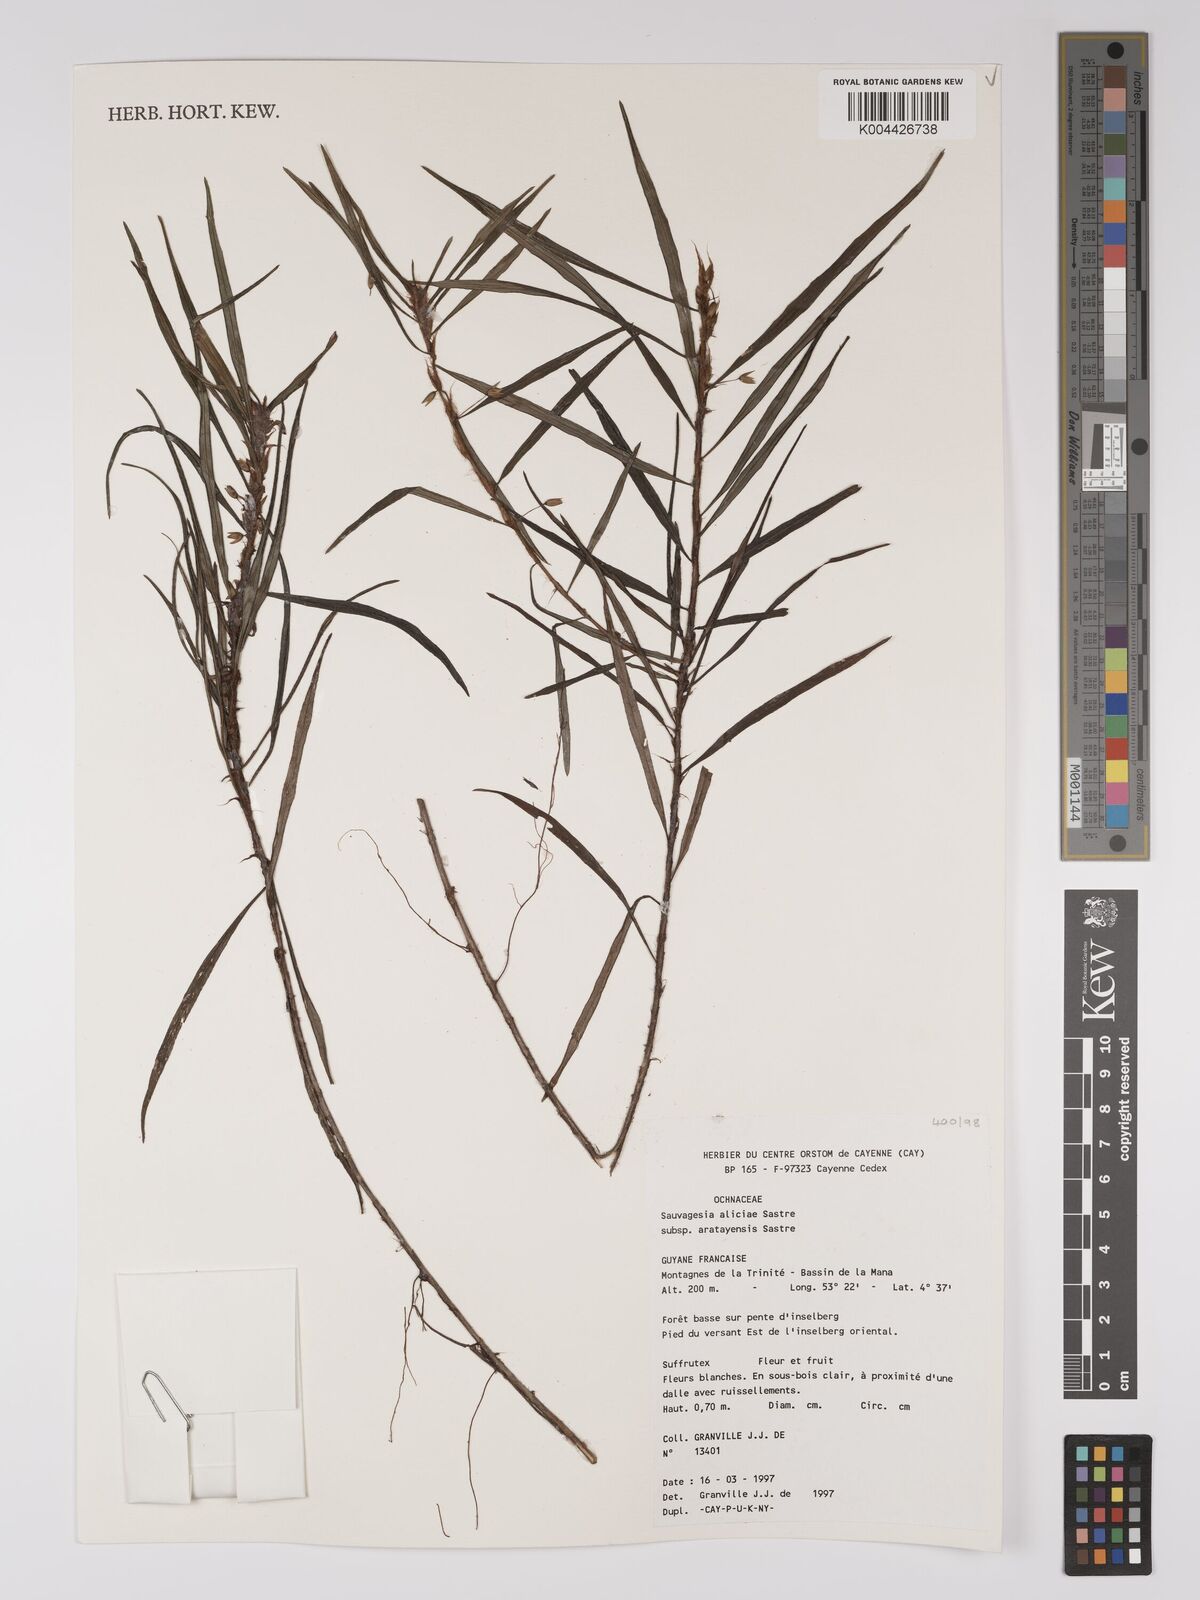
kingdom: Plantae
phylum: Tracheophyta
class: Magnoliopsida
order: Malpighiales
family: Ochnaceae
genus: Sauvagesia
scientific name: Sauvagesia aliciae
